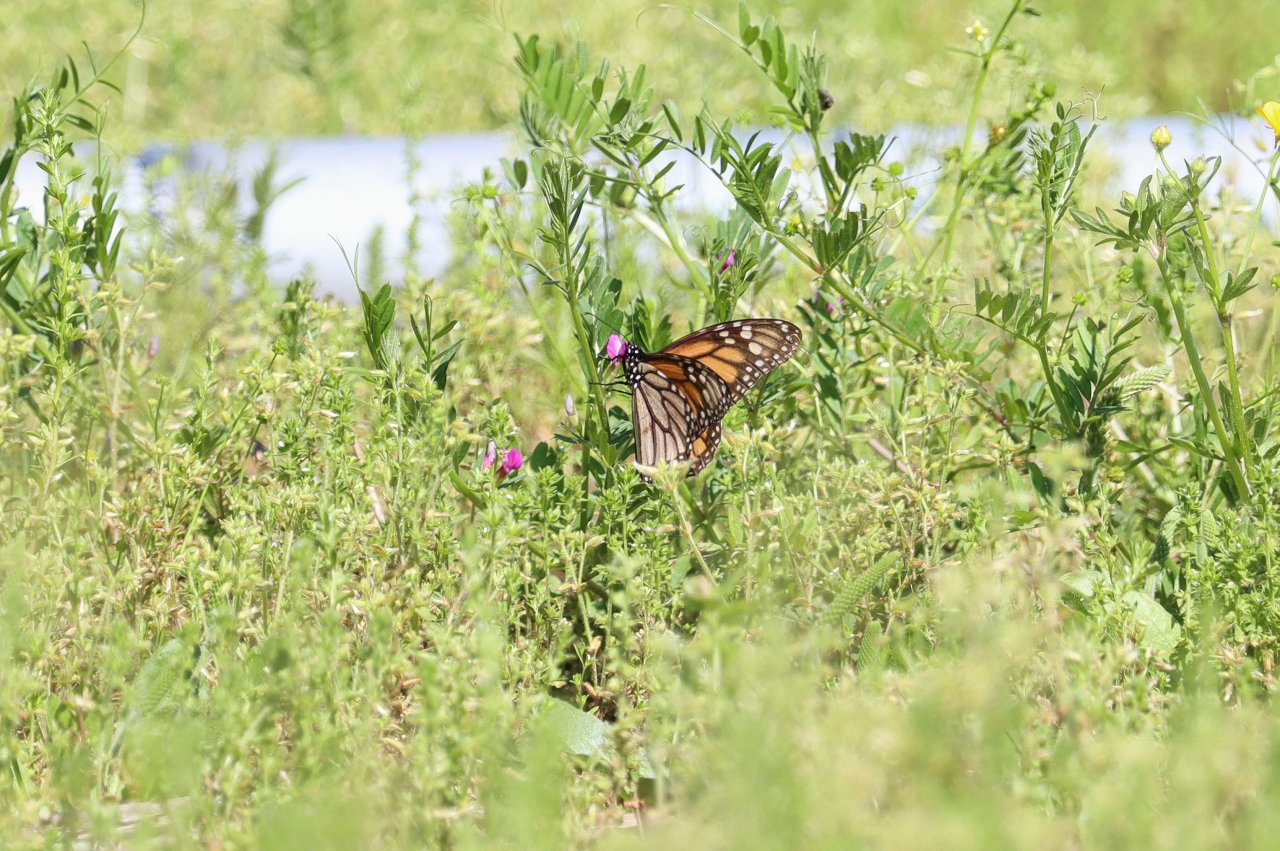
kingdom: Animalia
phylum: Arthropoda
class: Insecta
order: Lepidoptera
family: Nymphalidae
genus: Danaus
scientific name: Danaus plexippus
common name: Monarch
